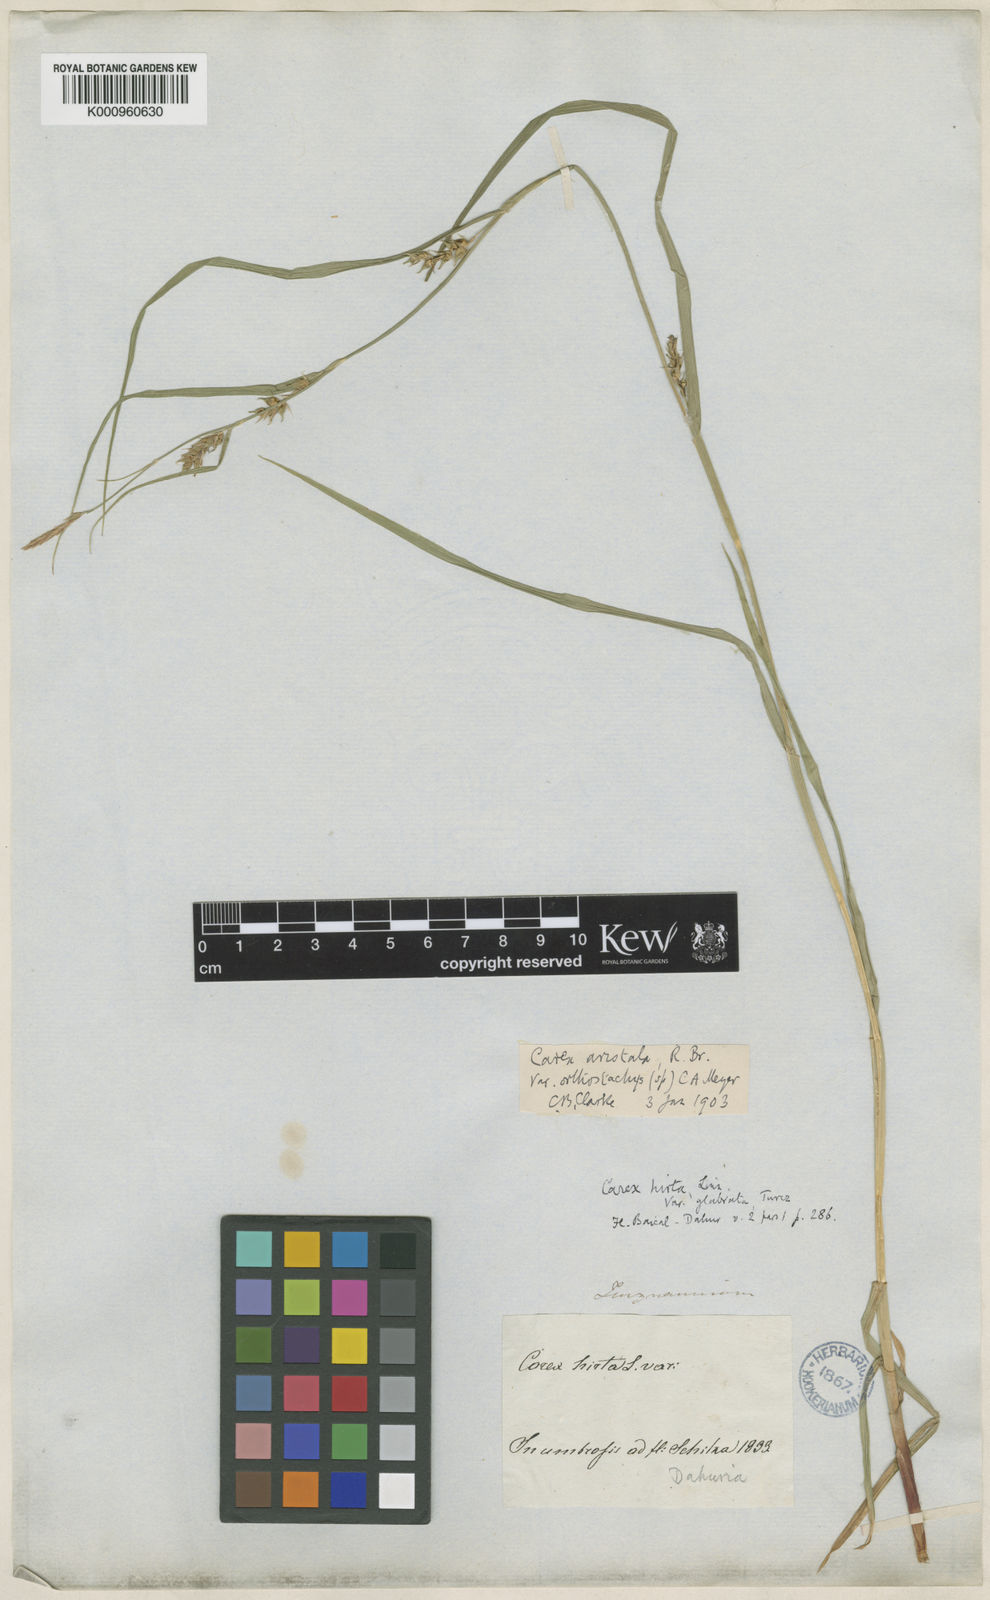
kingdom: Plantae
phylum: Tracheophyta
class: Liliopsida
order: Poales
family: Cyperaceae
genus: Carex
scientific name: Carex
